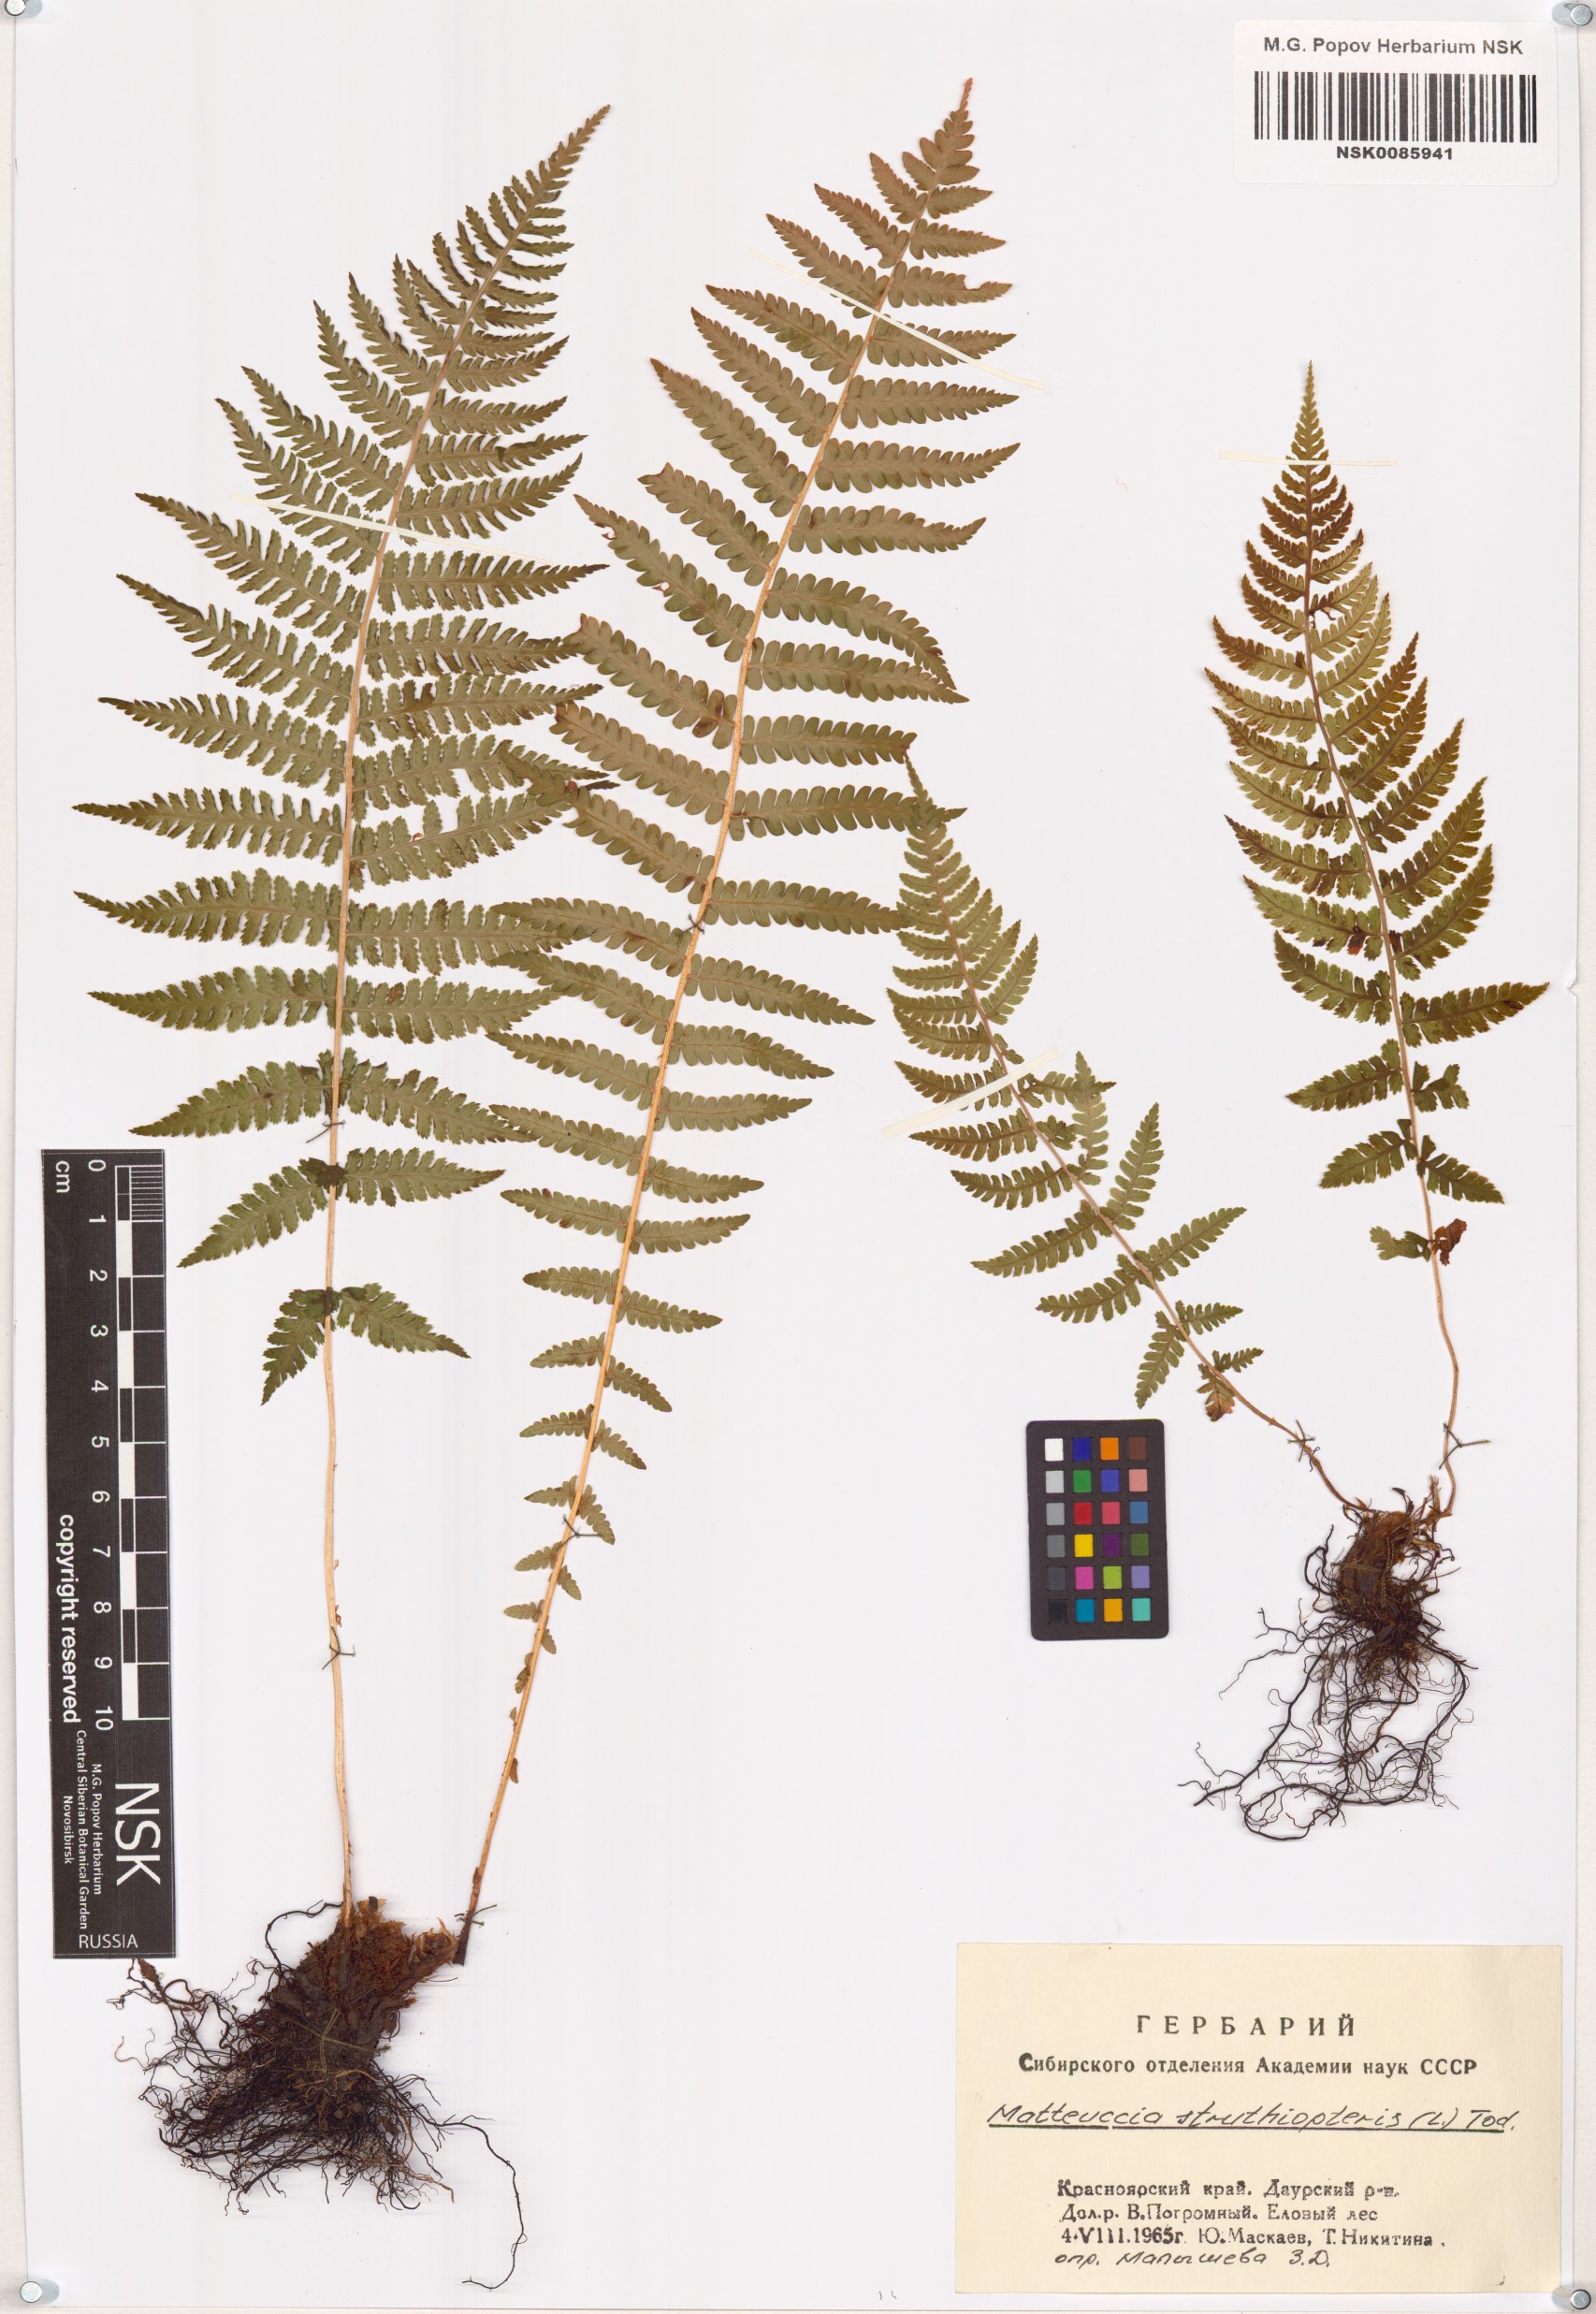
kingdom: Plantae
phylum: Tracheophyta
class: Polypodiopsida
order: Polypodiales
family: Onocleaceae
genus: Matteuccia
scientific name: Matteuccia struthiopteris
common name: Ostrich fern
